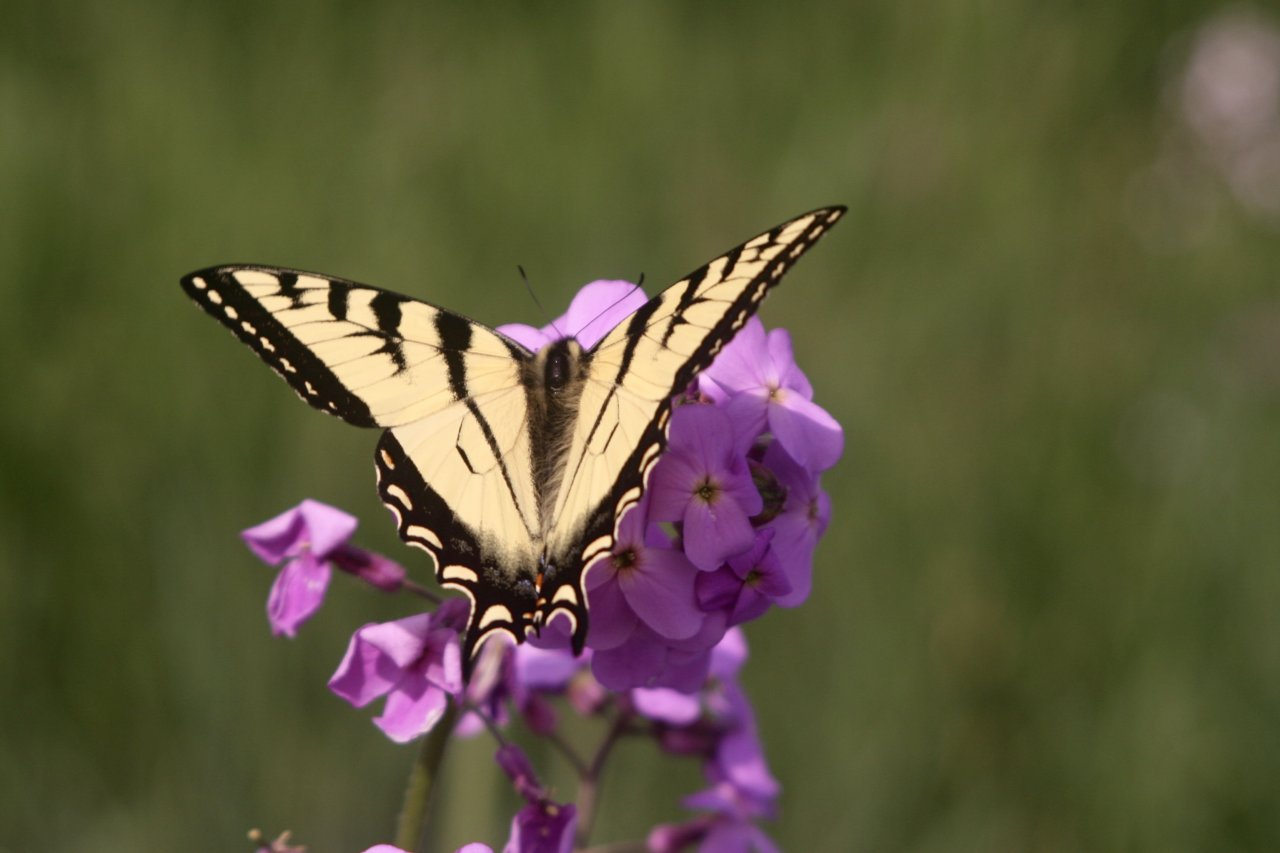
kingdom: Animalia
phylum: Arthropoda
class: Insecta
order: Lepidoptera
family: Papilionidae
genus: Pterourus
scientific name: Pterourus canadensis
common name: Canadian Tiger Swallowtail
